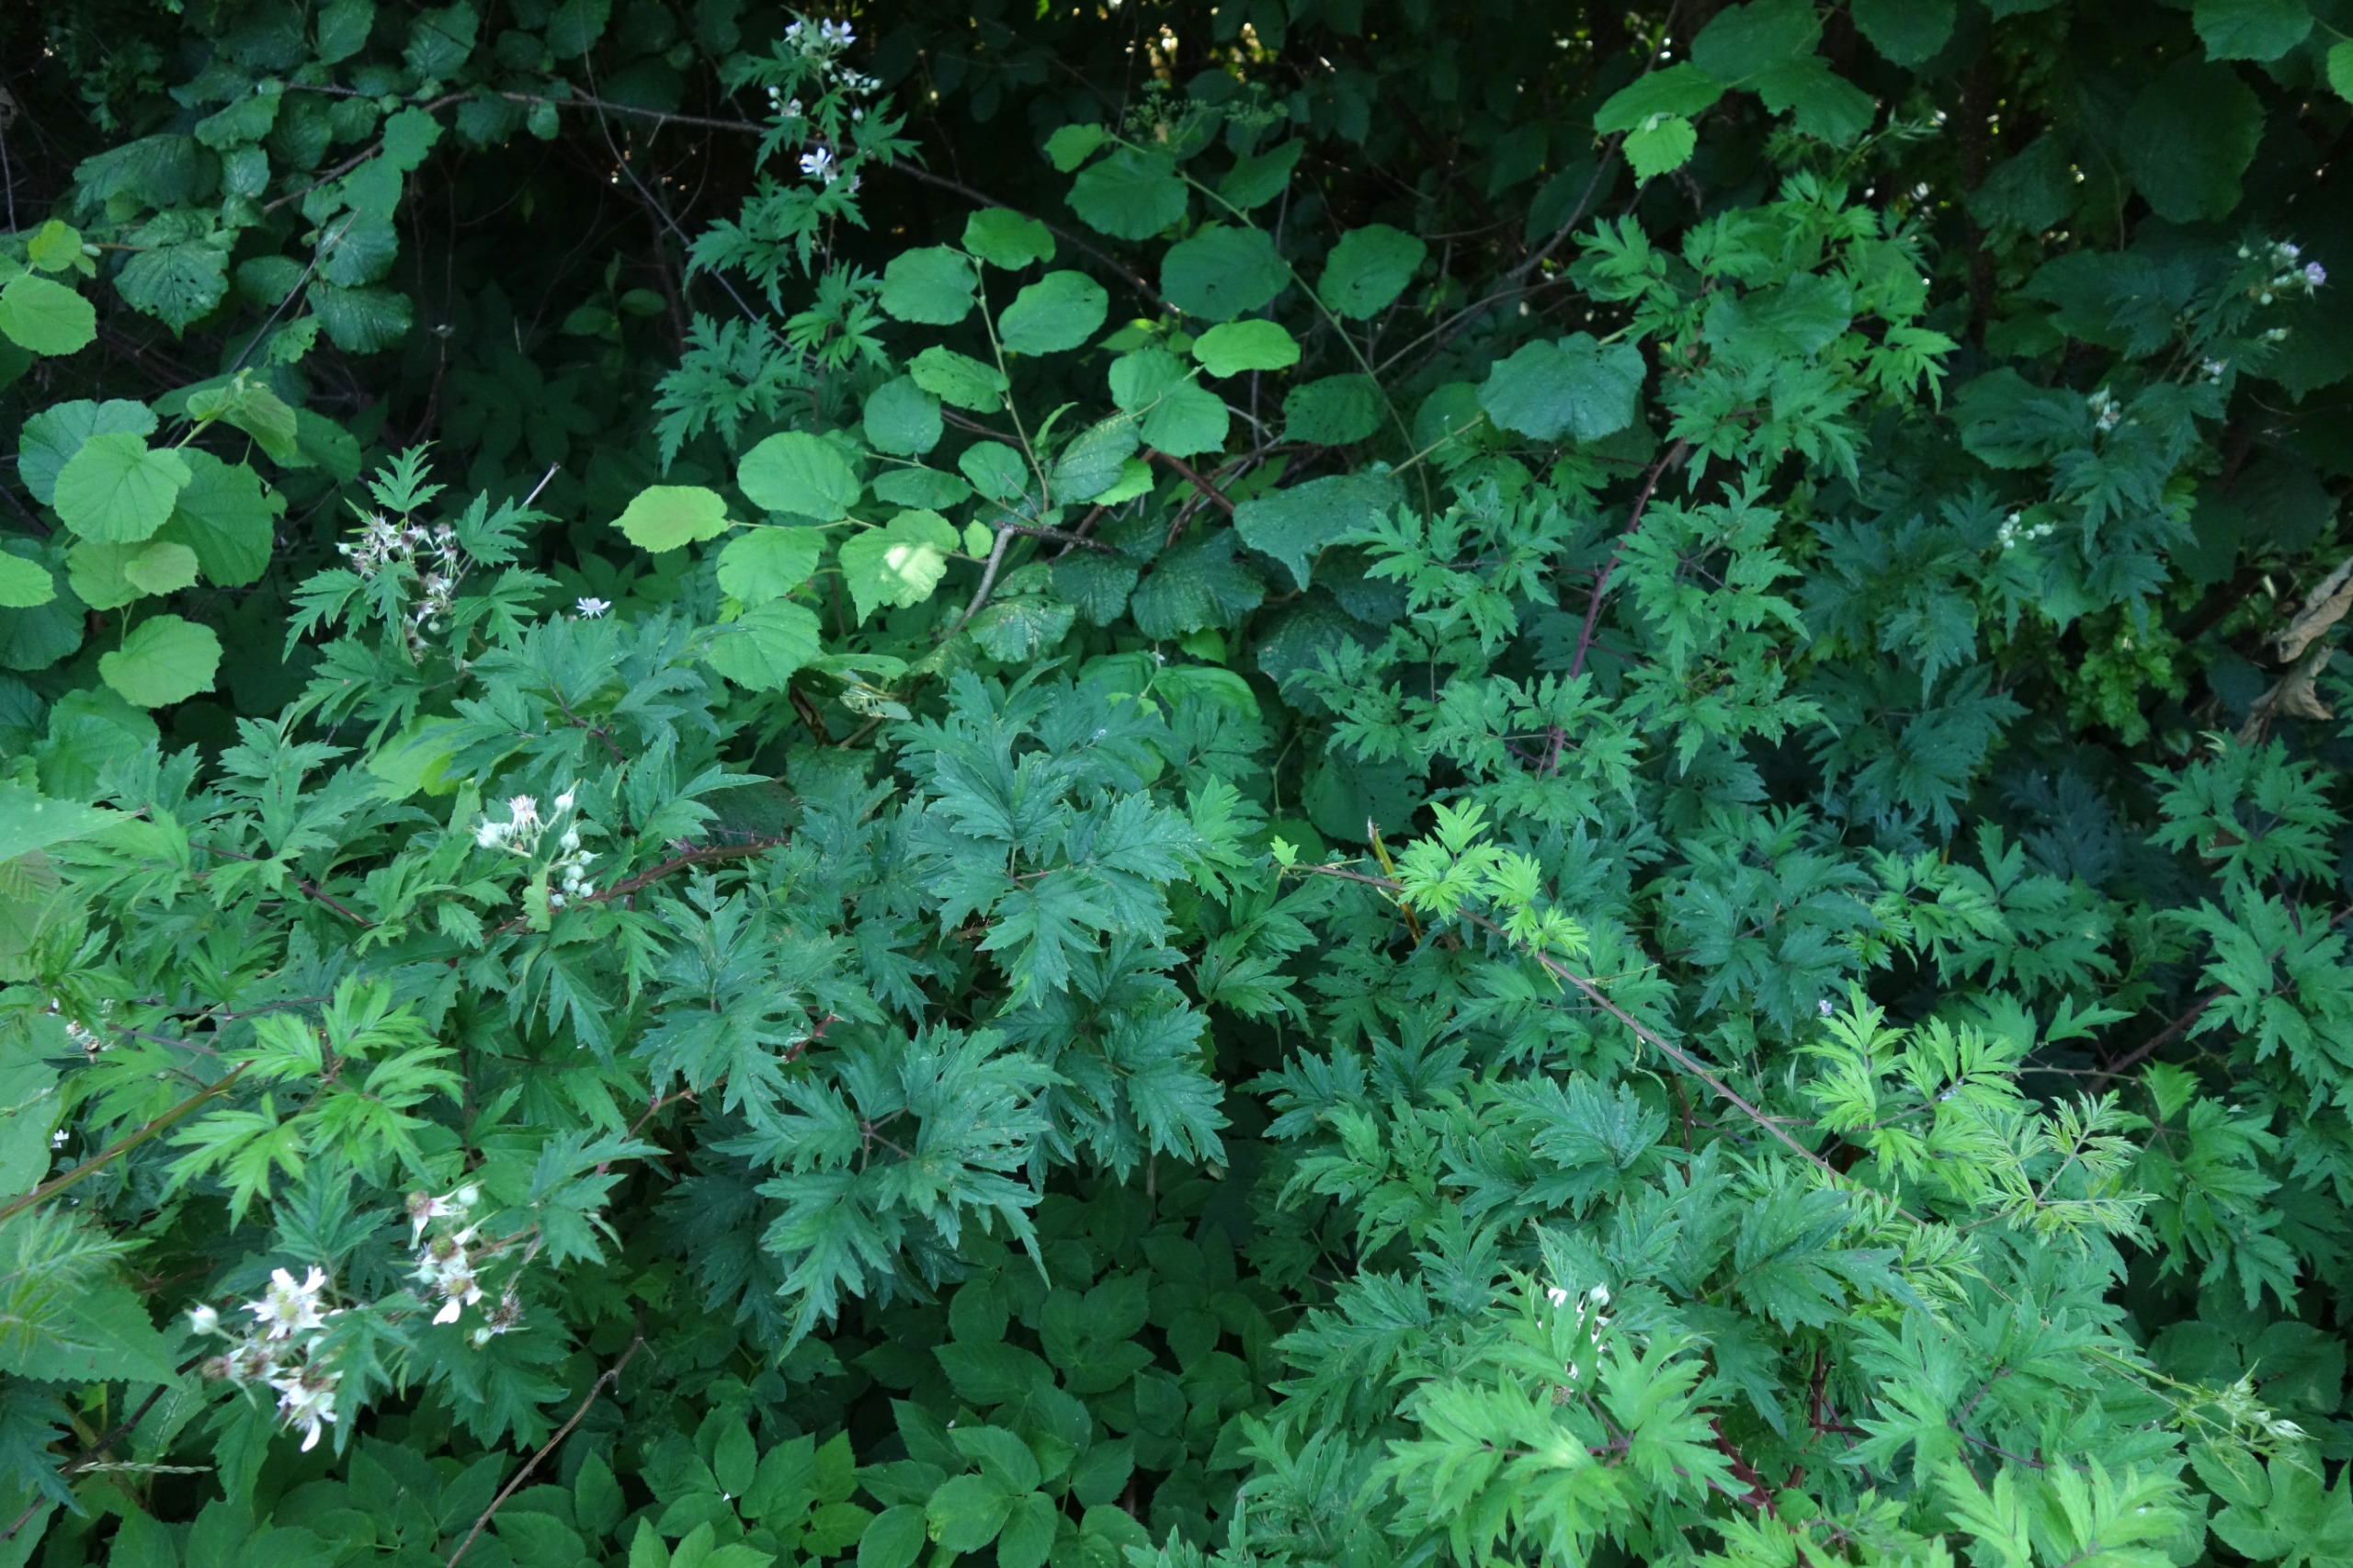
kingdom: Plantae
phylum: Tracheophyta
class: Magnoliopsida
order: Rosales
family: Rosaceae
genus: Rubus
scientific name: Rubus laciniatus
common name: Fliget brombær
